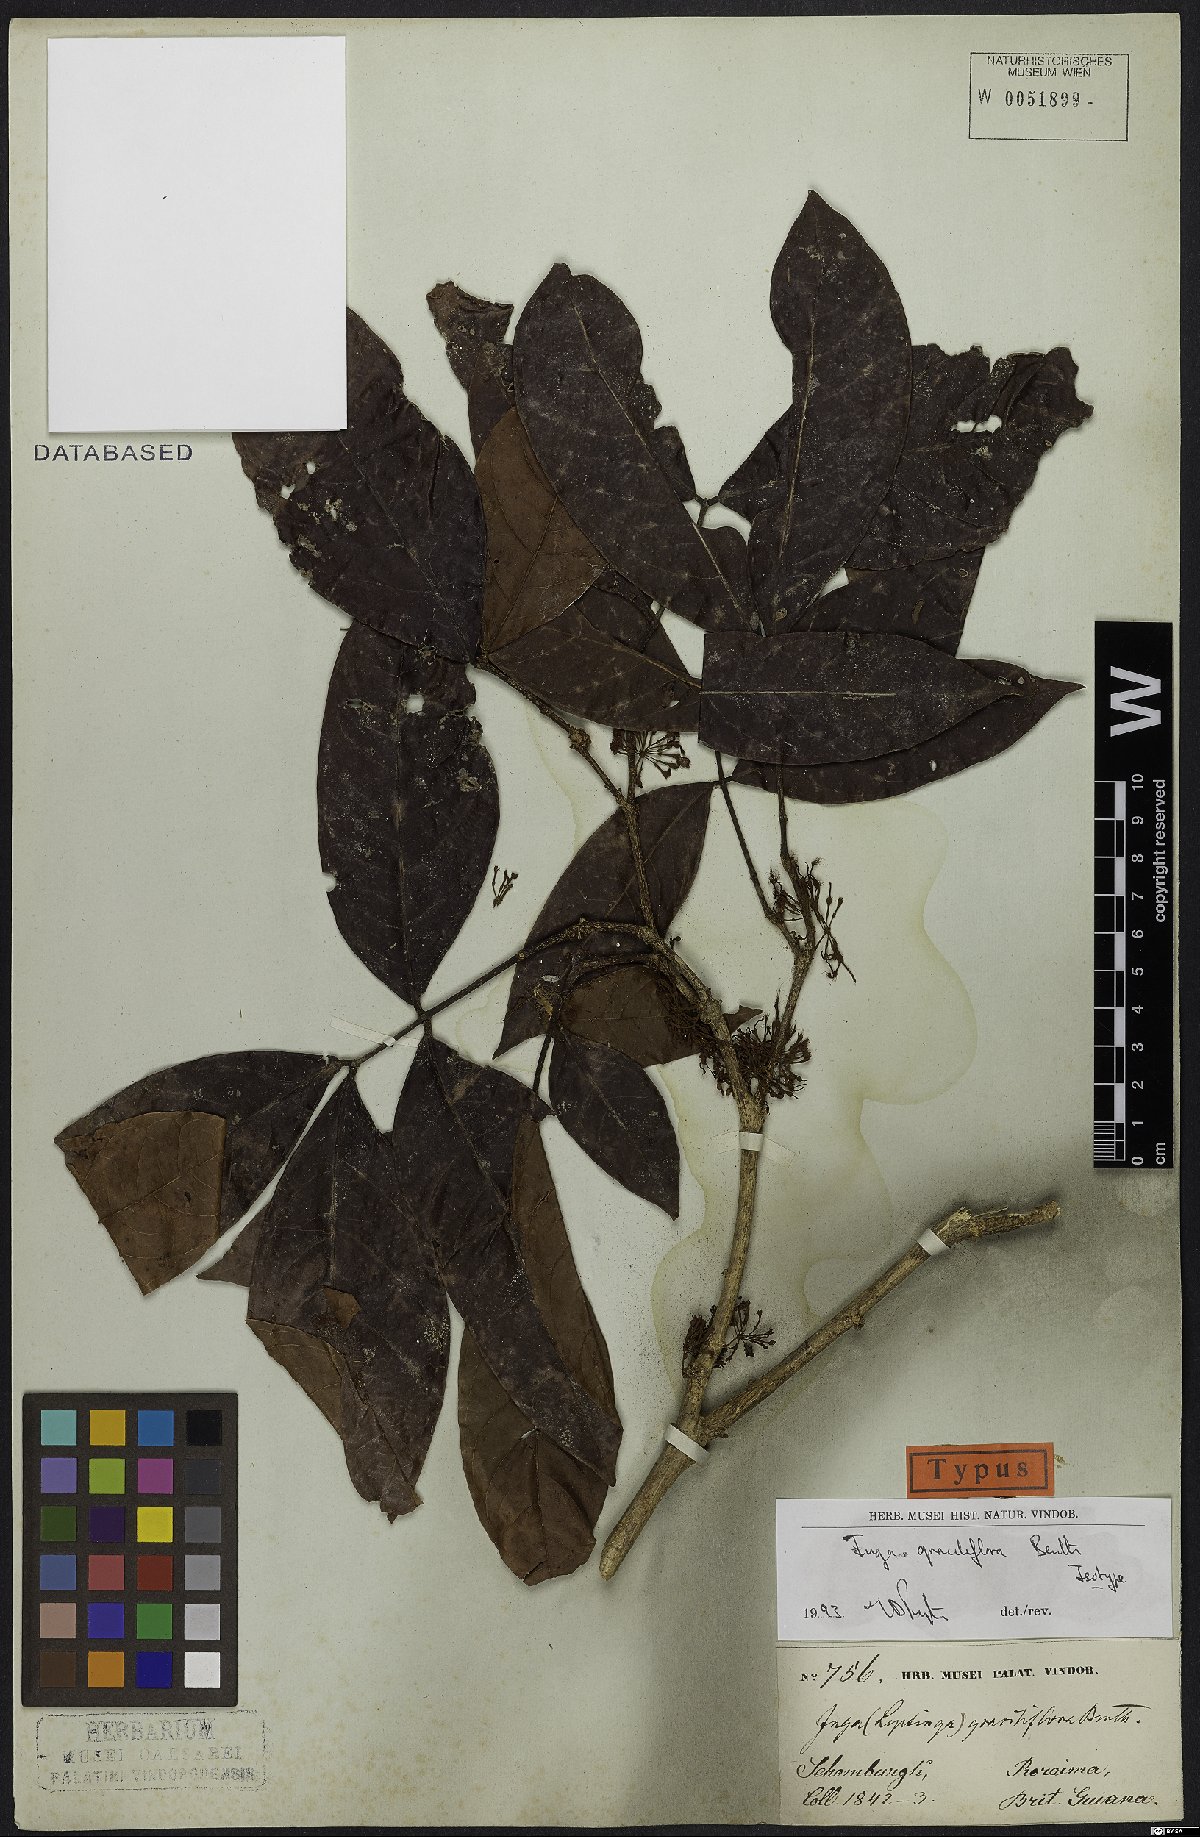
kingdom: Plantae
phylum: Tracheophyta
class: Magnoliopsida
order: Fabales
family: Fabaceae
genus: Inga
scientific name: Inga graciliflora
